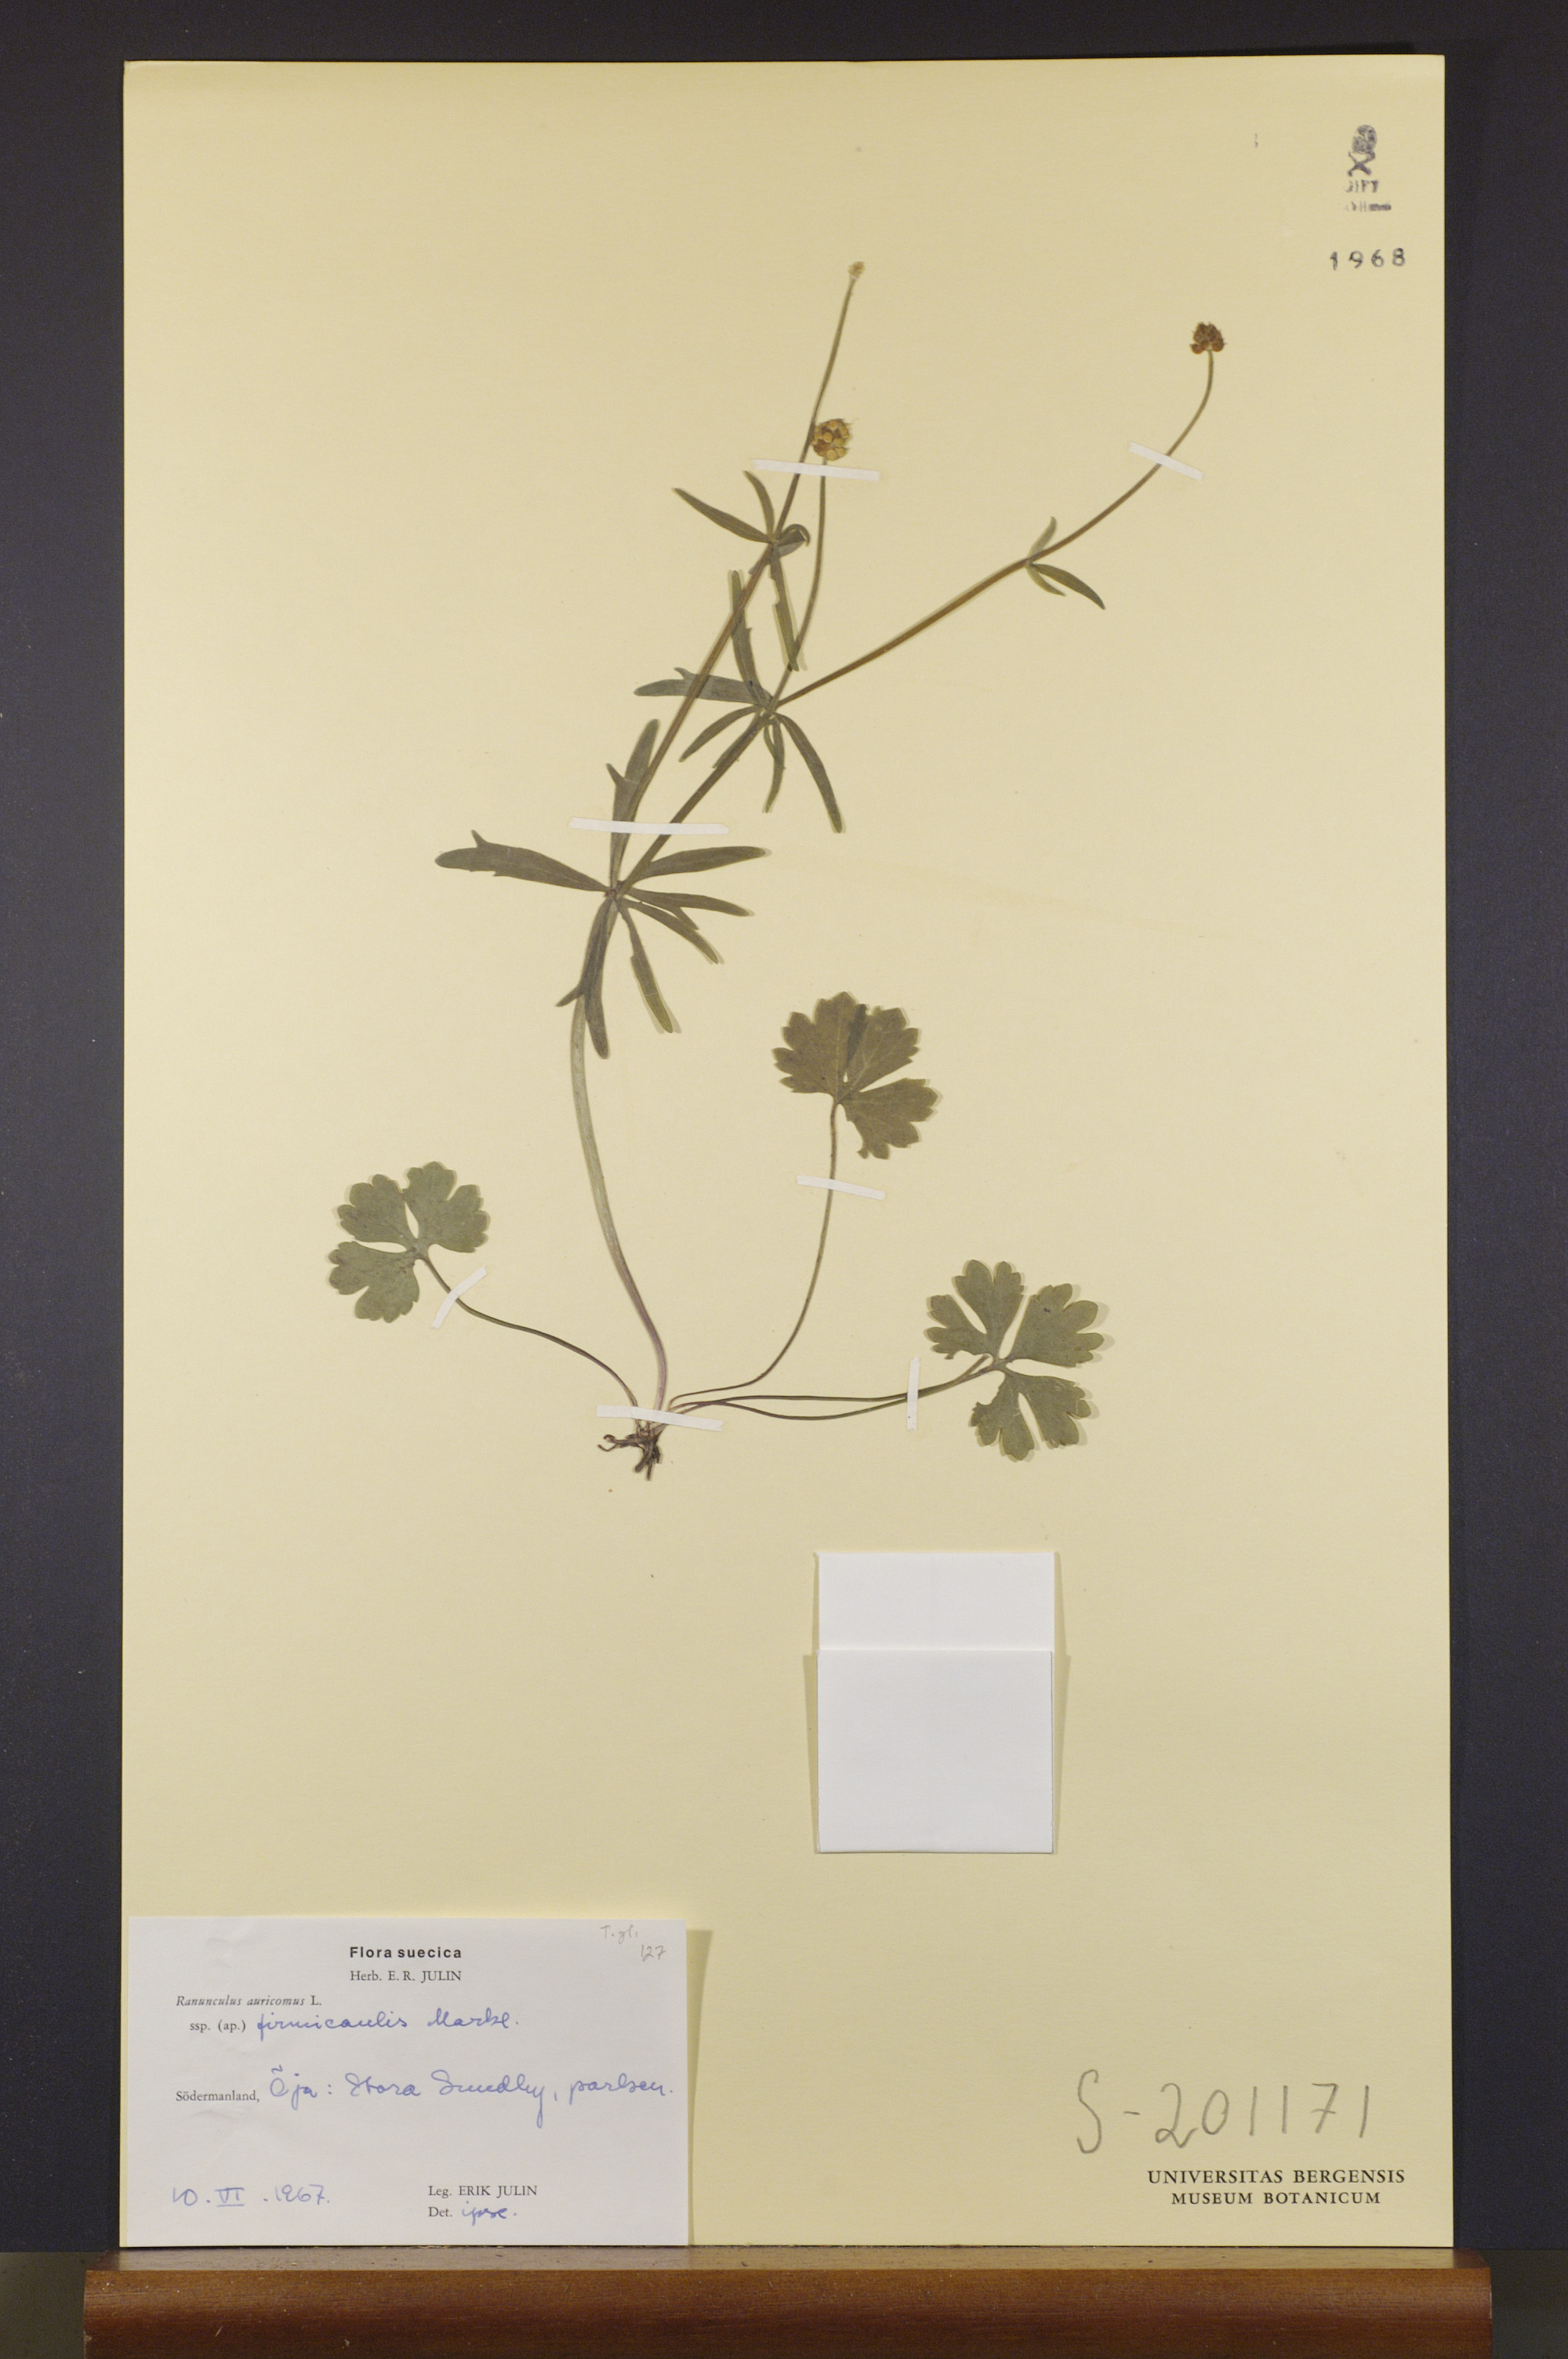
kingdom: Plantae
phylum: Tracheophyta
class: Magnoliopsida
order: Ranunculales
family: Ranunculaceae
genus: Ranunculus
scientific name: Ranunculus firmicaulis
